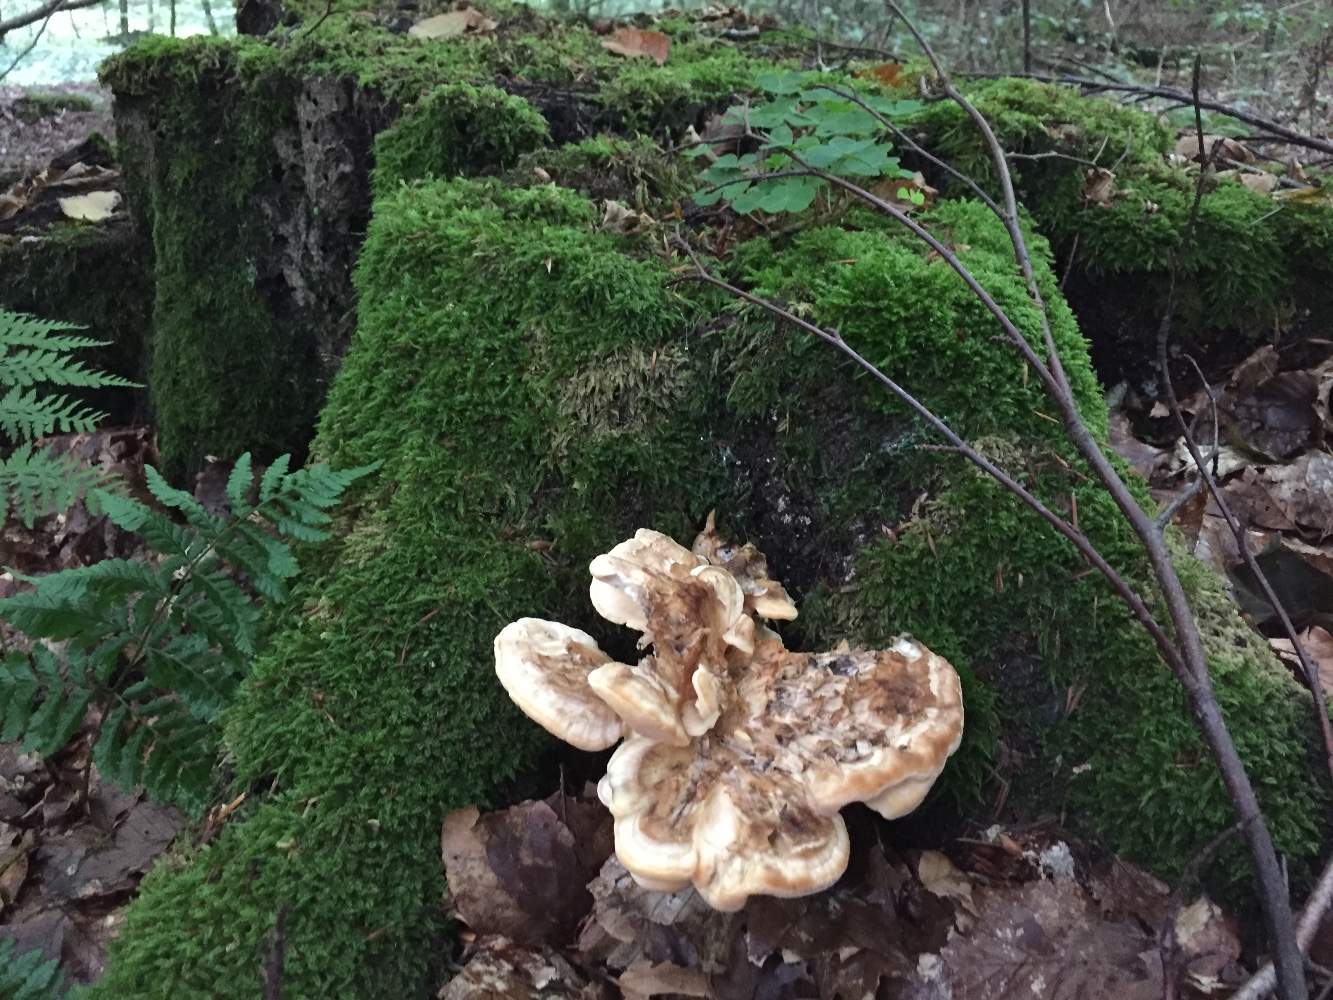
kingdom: Fungi
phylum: Basidiomycota
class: Agaricomycetes
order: Polyporales
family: Meripilaceae
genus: Meripilus
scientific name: Meripilus giganteus
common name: kæmpeporesvamp
